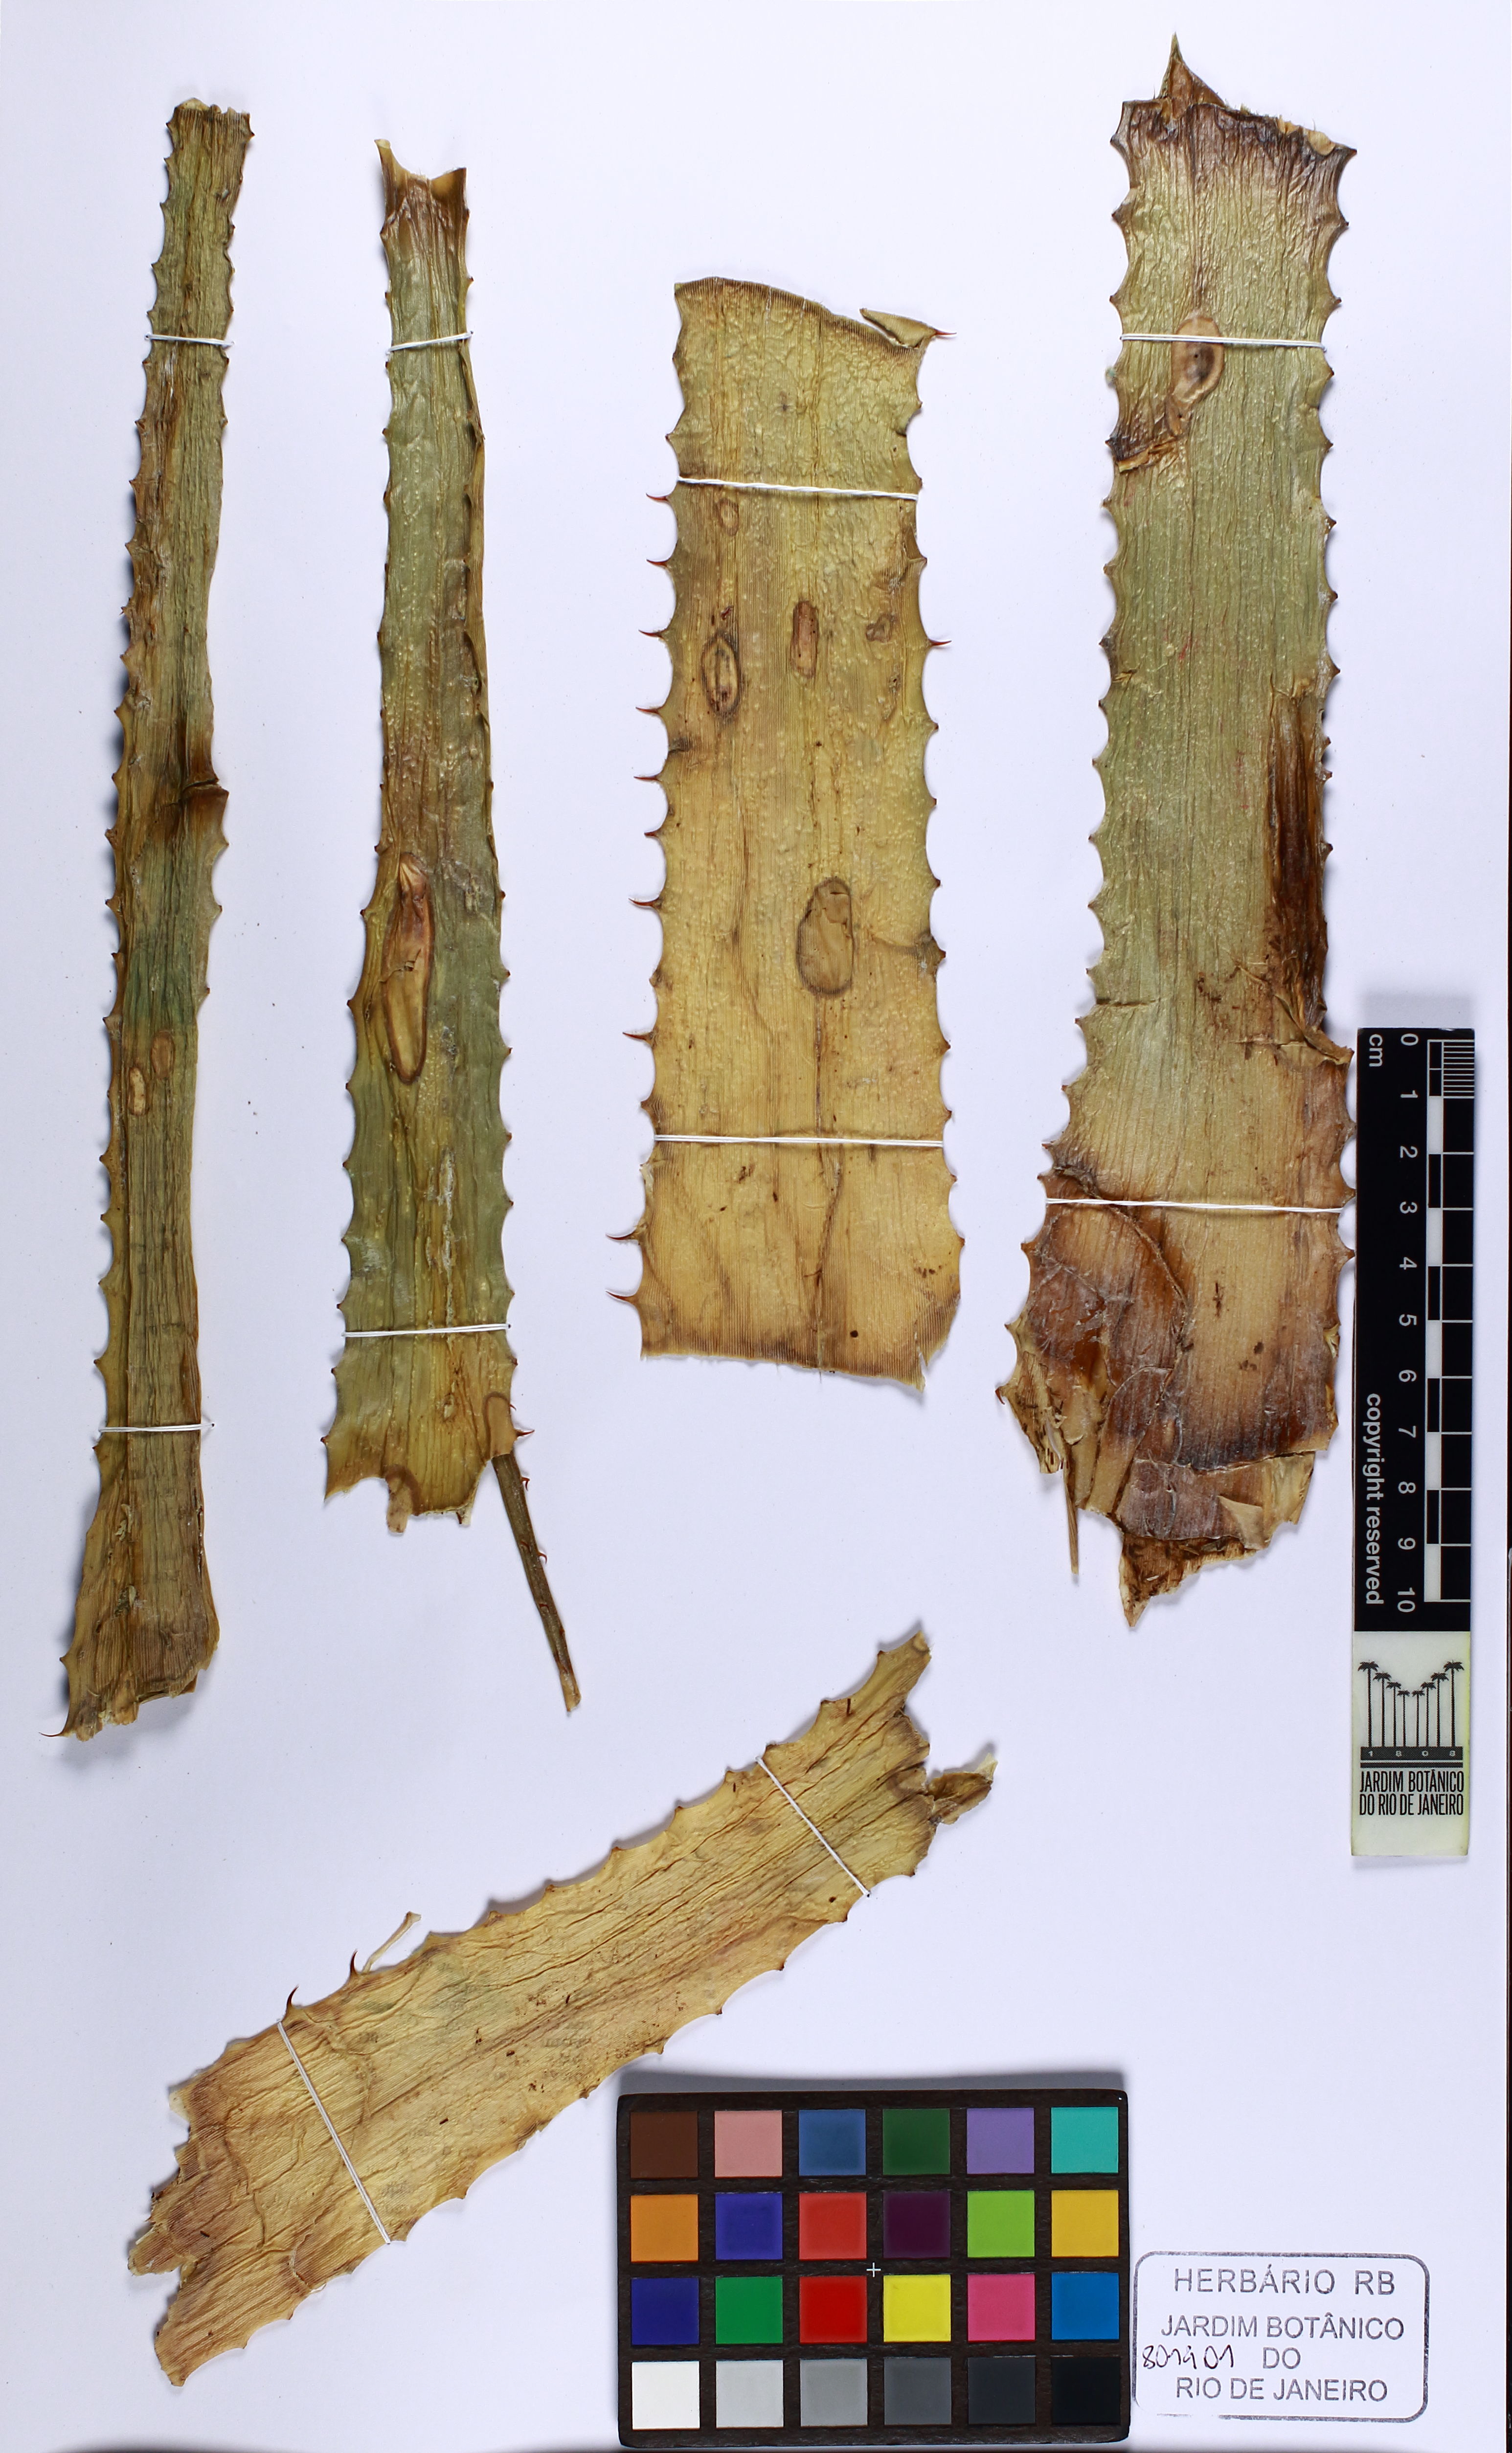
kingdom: Plantae
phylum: Tracheophyta
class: Liliopsida
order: Poales
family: Bromeliaceae
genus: Dyckia
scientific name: Dyckia ferruginea
